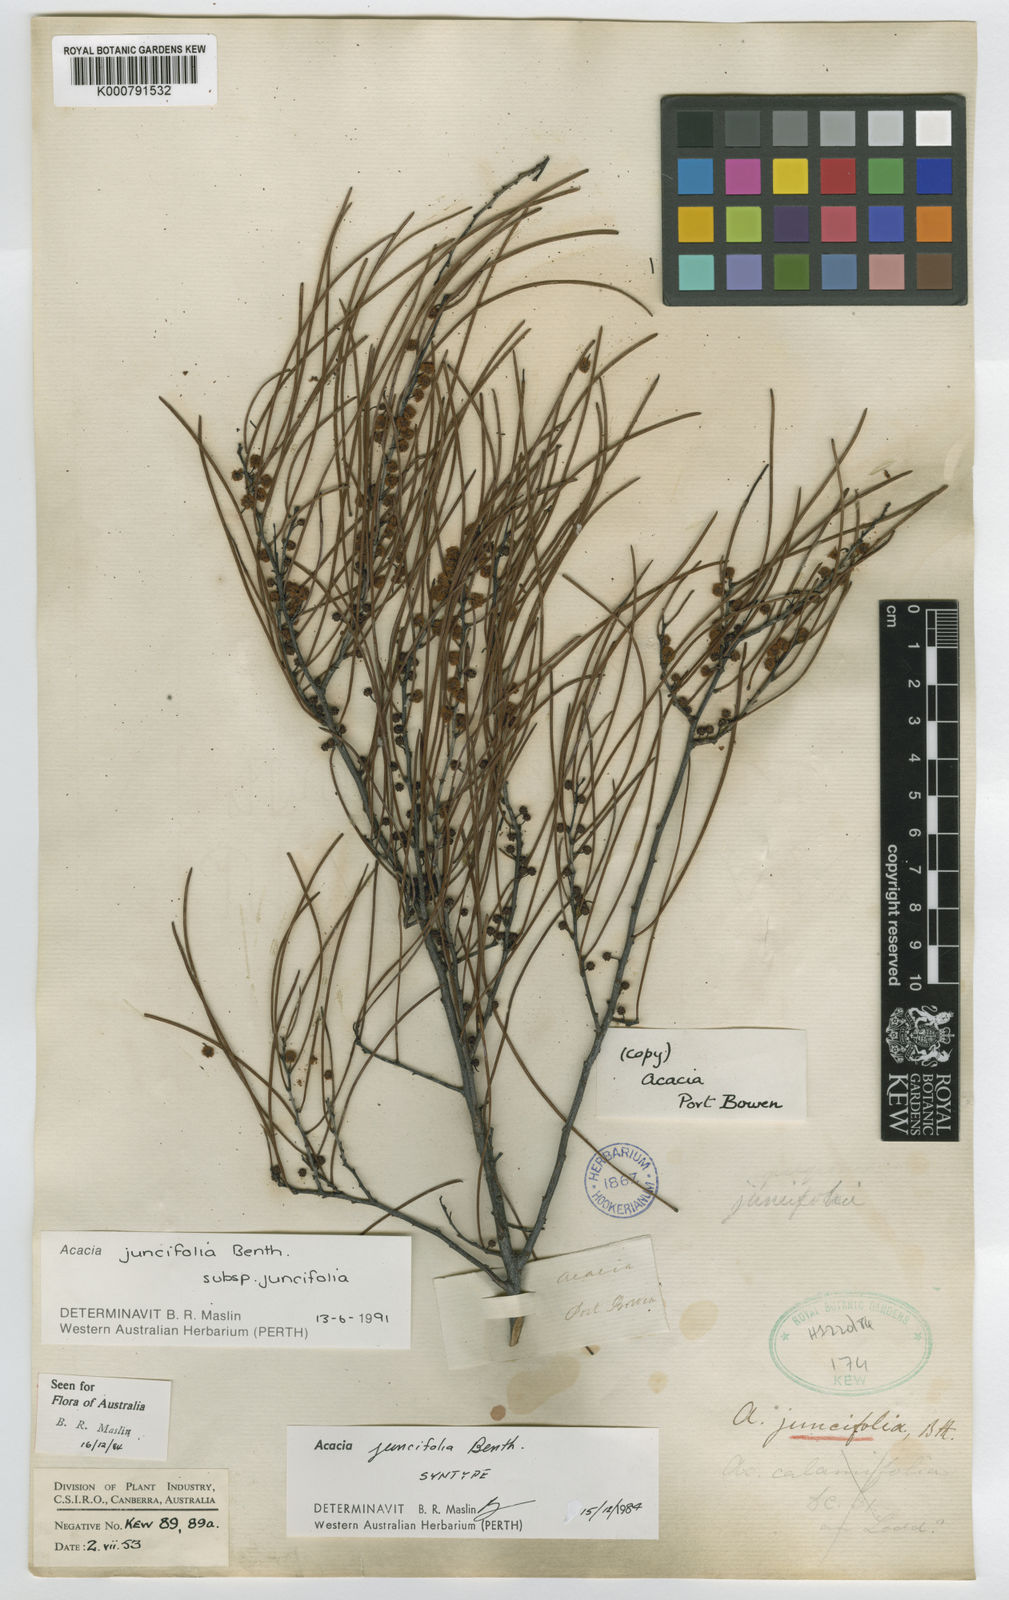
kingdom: Plantae
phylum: Tracheophyta
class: Magnoliopsida
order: Fabales
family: Fabaceae
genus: Acacia
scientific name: Acacia juncifolia
